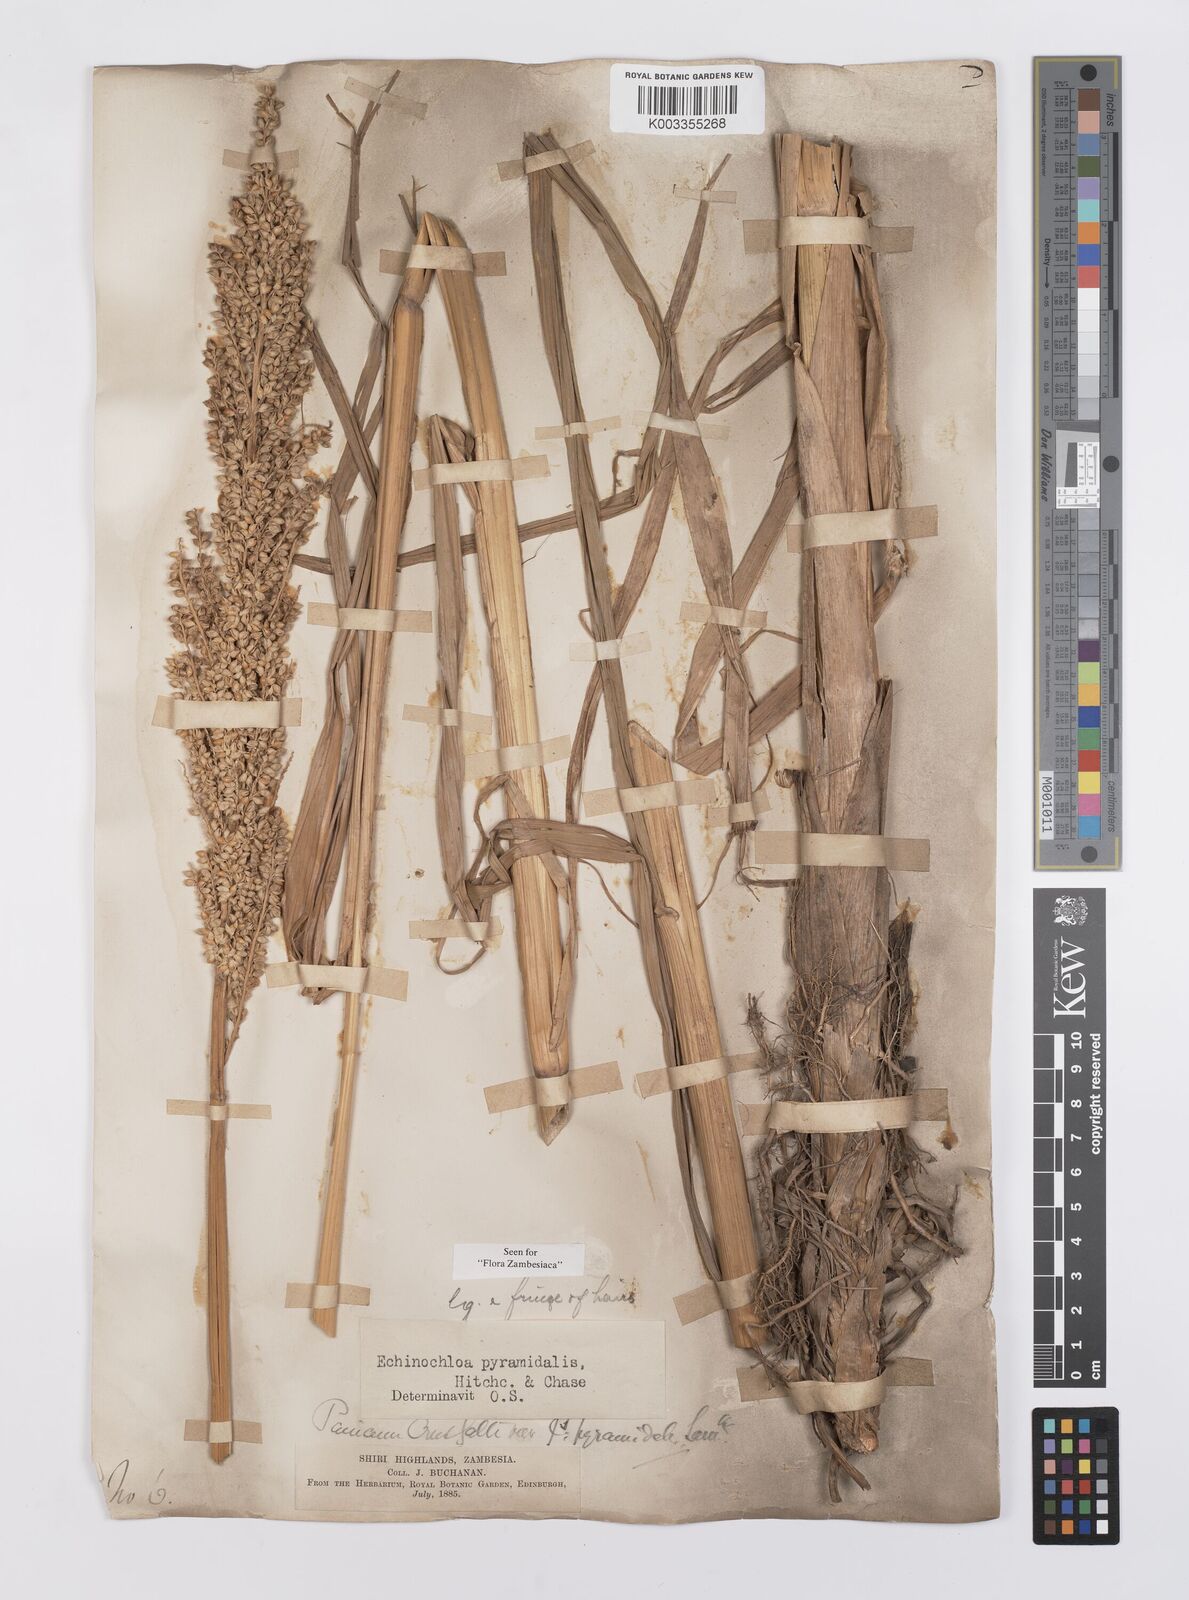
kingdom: Plantae
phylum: Tracheophyta
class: Liliopsida
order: Poales
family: Poaceae
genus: Echinochloa
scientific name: Echinochloa pyramidalis
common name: Antelope grass
